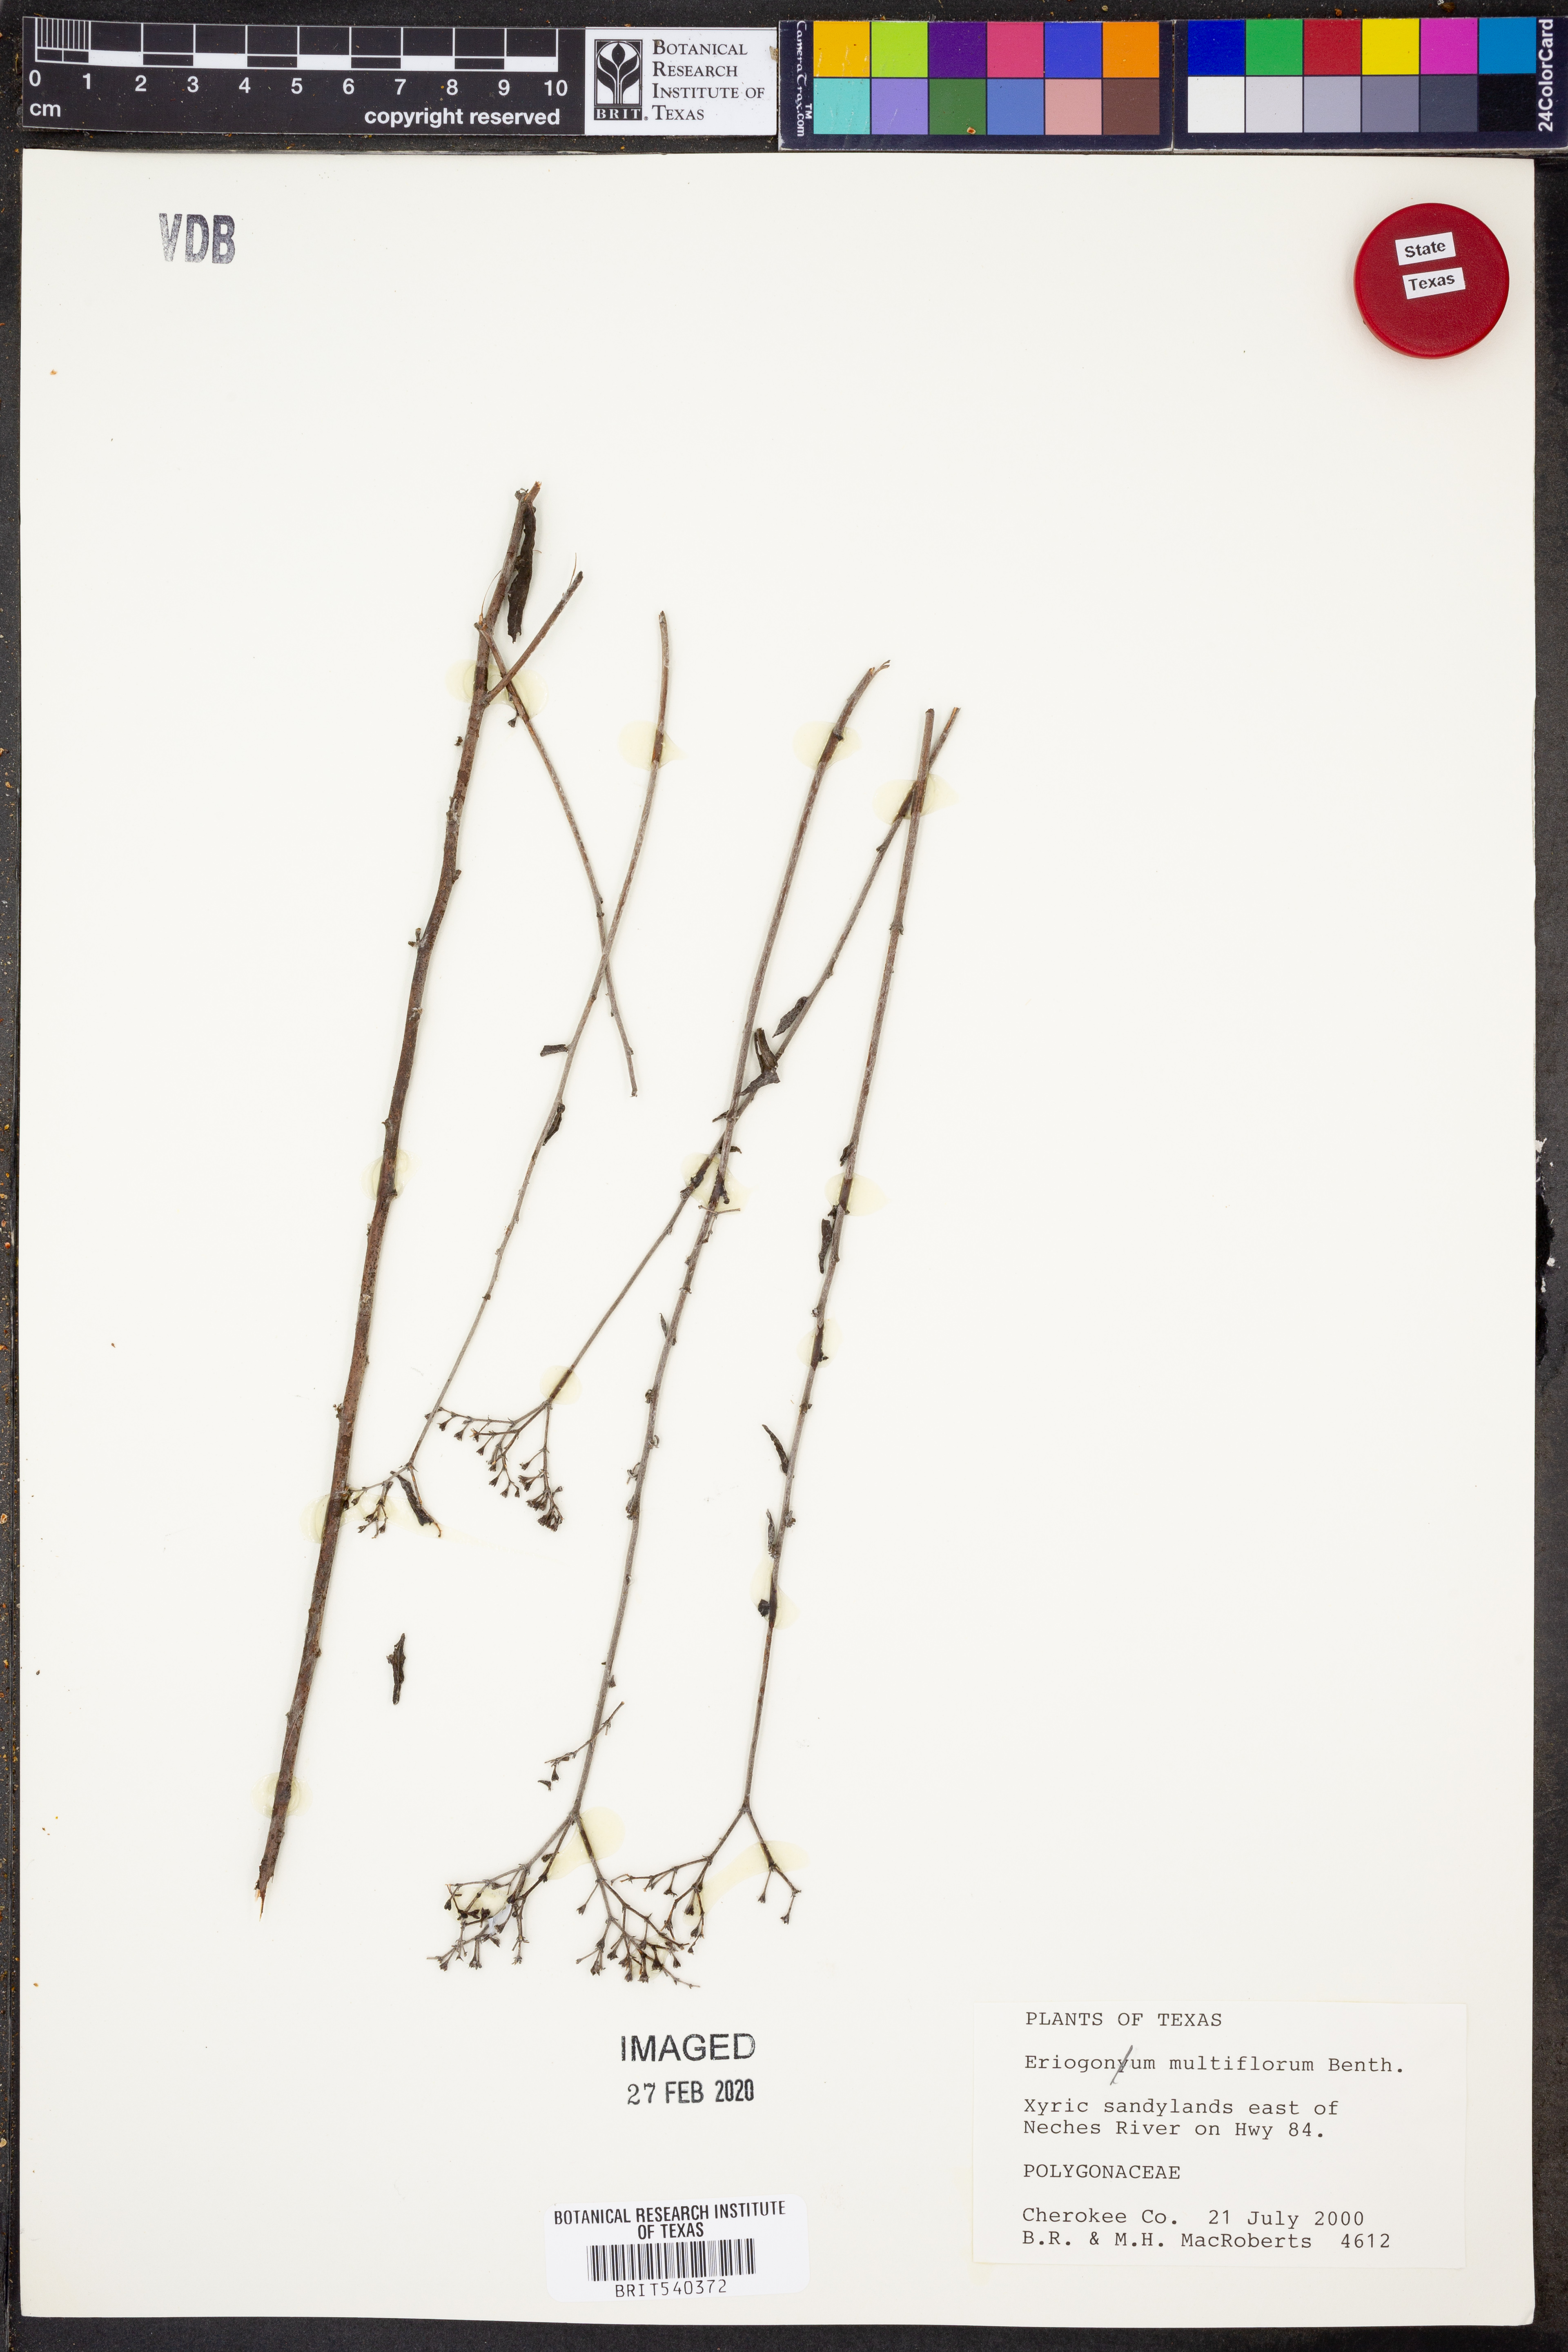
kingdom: Plantae
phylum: Tracheophyta
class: Magnoliopsida
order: Caryophyllales
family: Polygonaceae
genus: Eriogonum
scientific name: Eriogonum multiflorum
